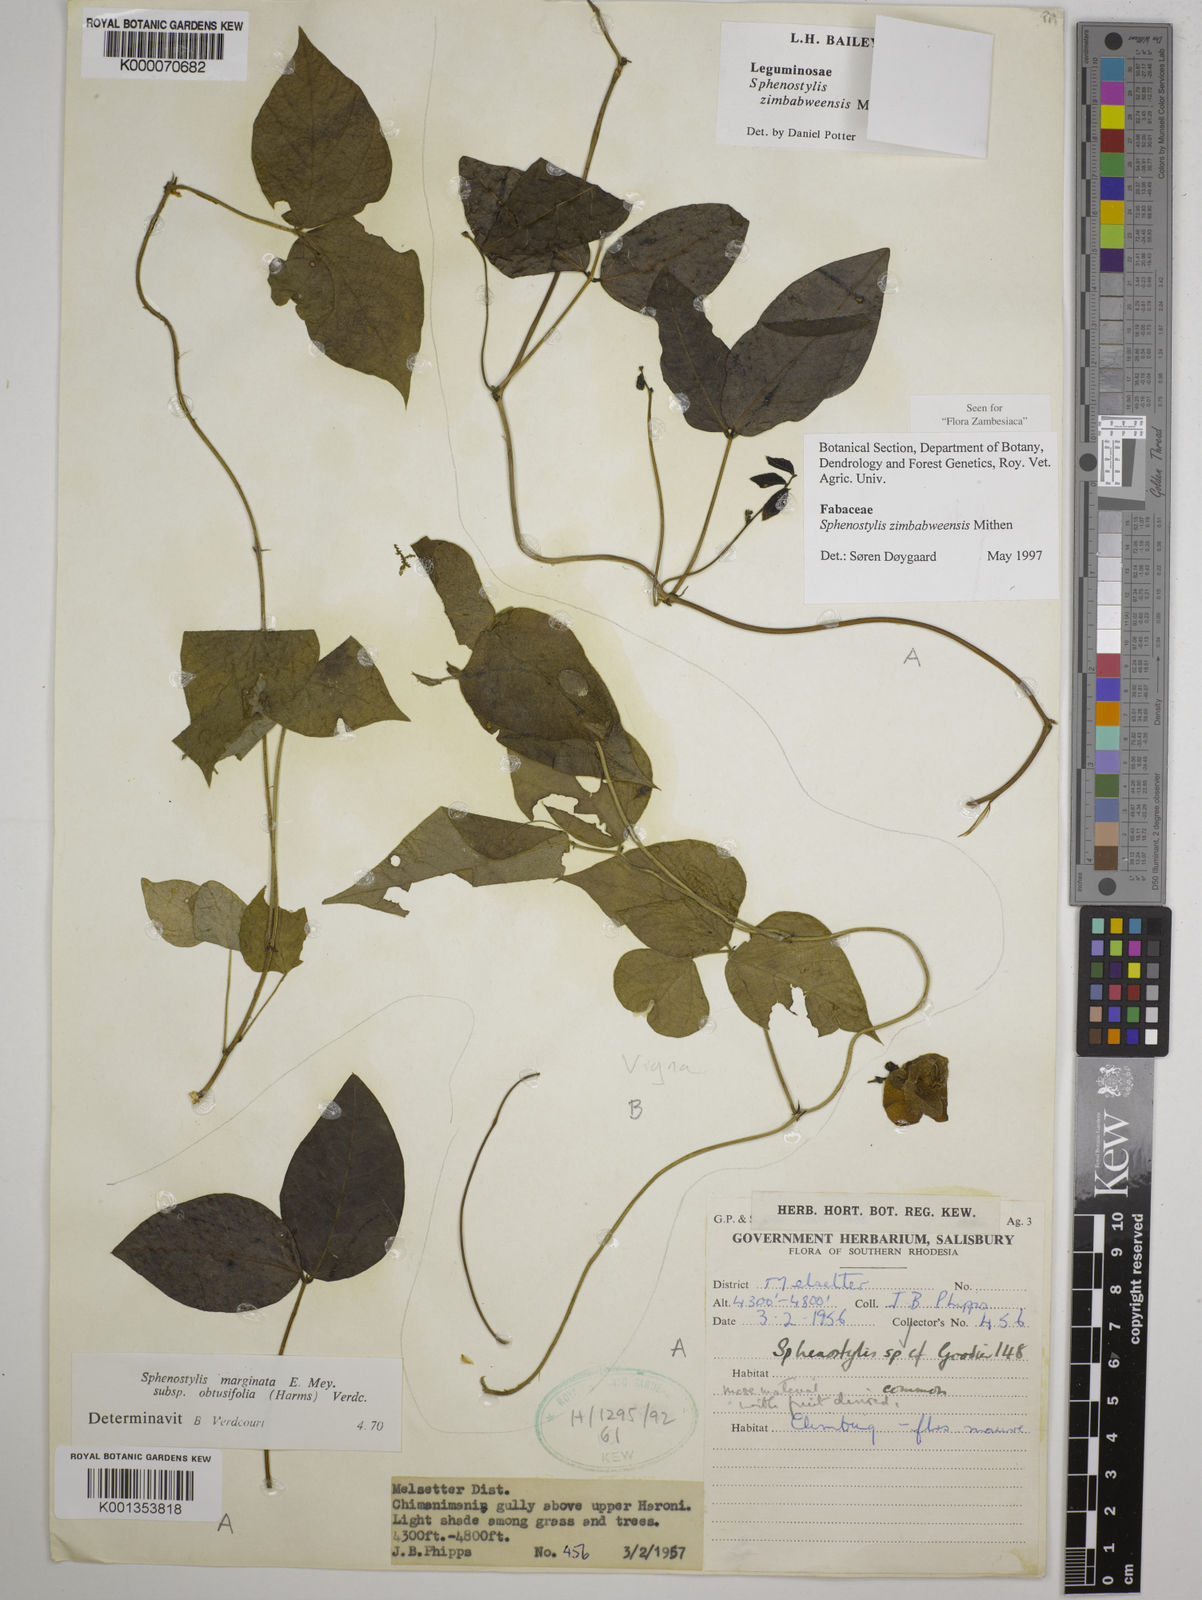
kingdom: Plantae
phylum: Tracheophyta
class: Magnoliopsida
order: Fabales
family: Fabaceae
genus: Sphenostylis
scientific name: Sphenostylis zimbabweensis
